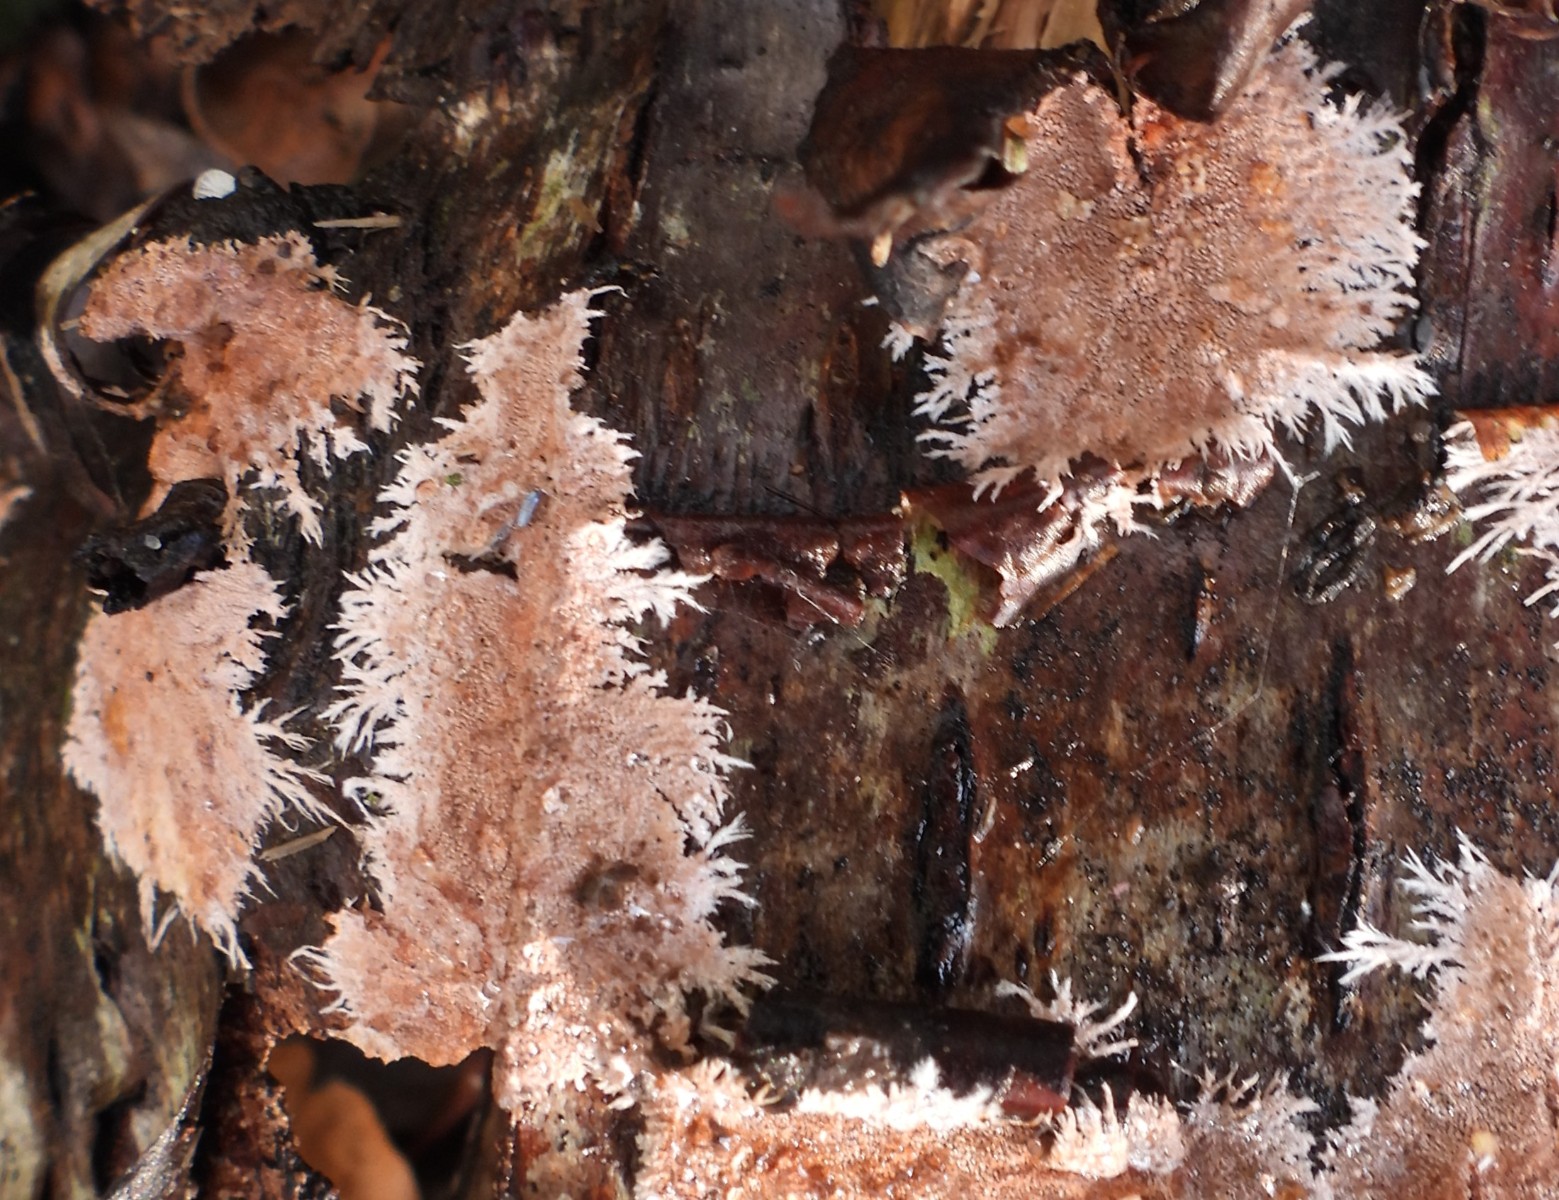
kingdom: Fungi
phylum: Basidiomycota
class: Agaricomycetes
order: Polyporales
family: Steccherinaceae
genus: Steccherinum
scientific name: Steccherinum fimbriatum
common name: trådet skønpig
